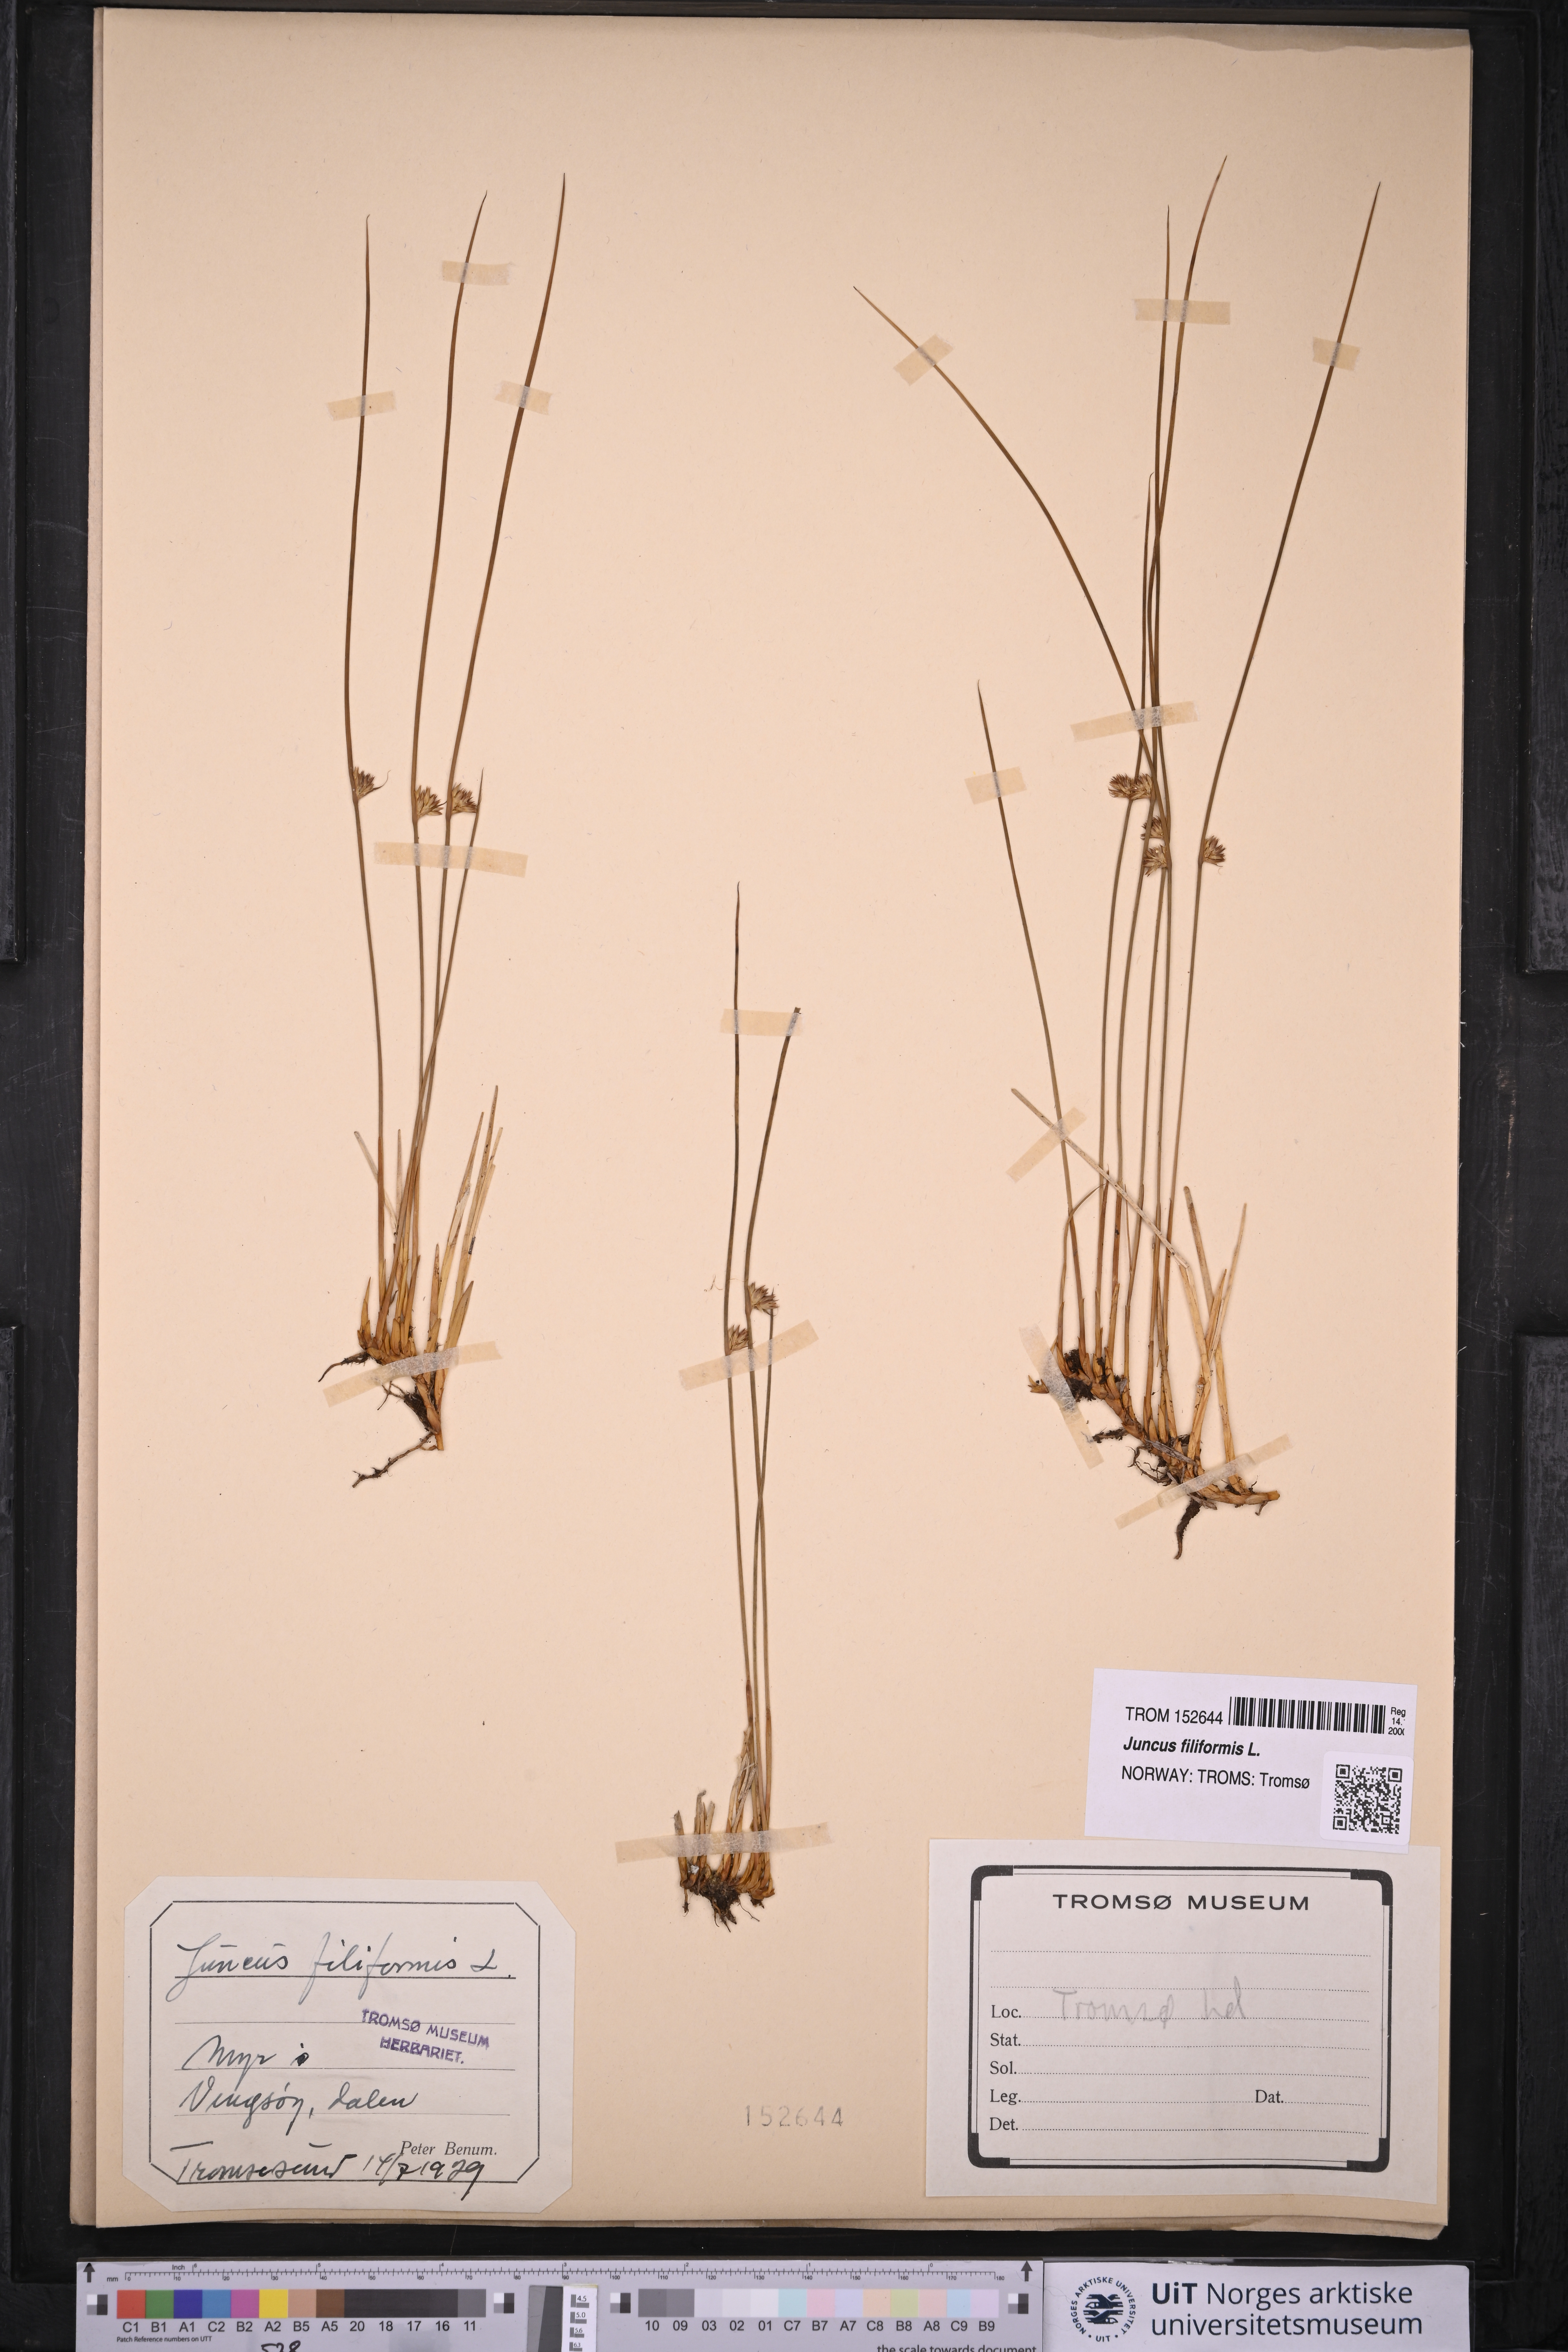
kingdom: Plantae
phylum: Tracheophyta
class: Liliopsida
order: Poales
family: Juncaceae
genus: Juncus
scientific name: Juncus filiformis
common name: Thread rush
